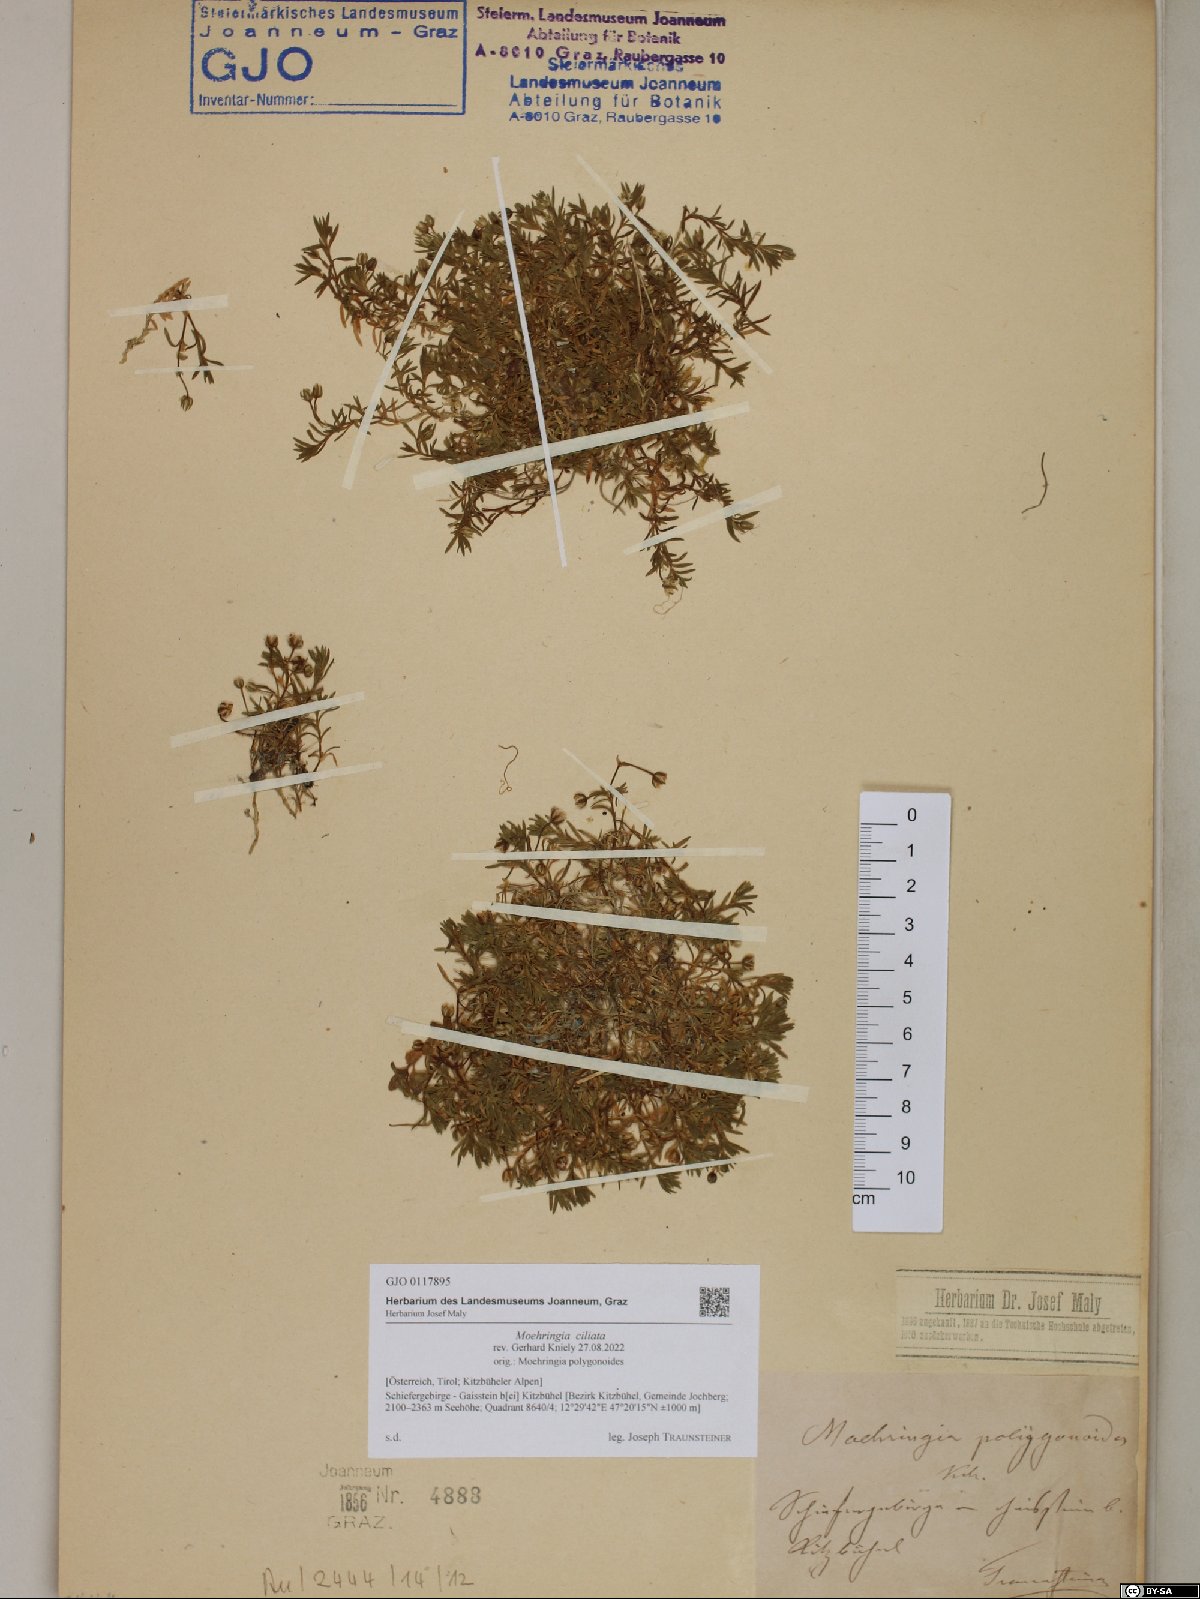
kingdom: Plantae
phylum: Tracheophyta
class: Magnoliopsida
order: Caryophyllales
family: Caryophyllaceae
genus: Moehringia
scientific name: Moehringia ciliata
